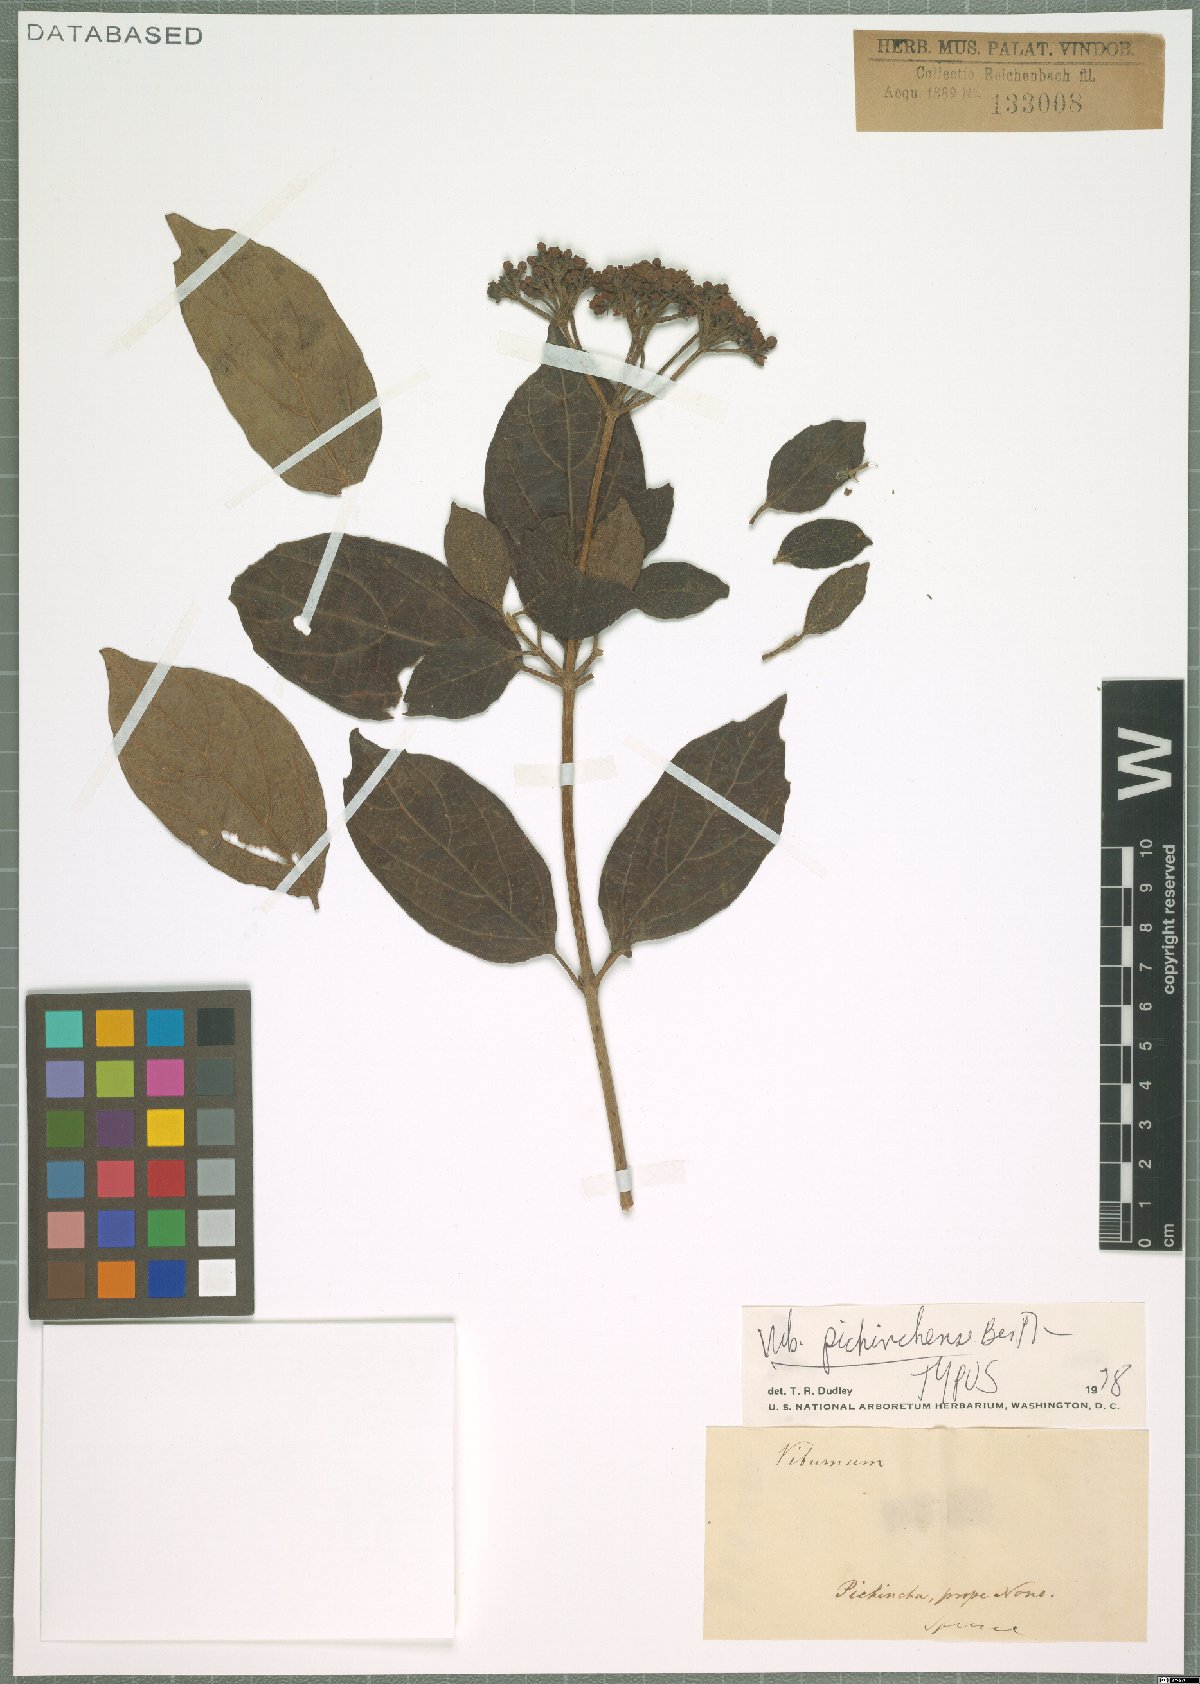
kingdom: Plantae
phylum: Tracheophyta
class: Magnoliopsida
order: Dipsacales
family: Viburnaceae
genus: Viburnum
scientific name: Viburnum pichinchense
